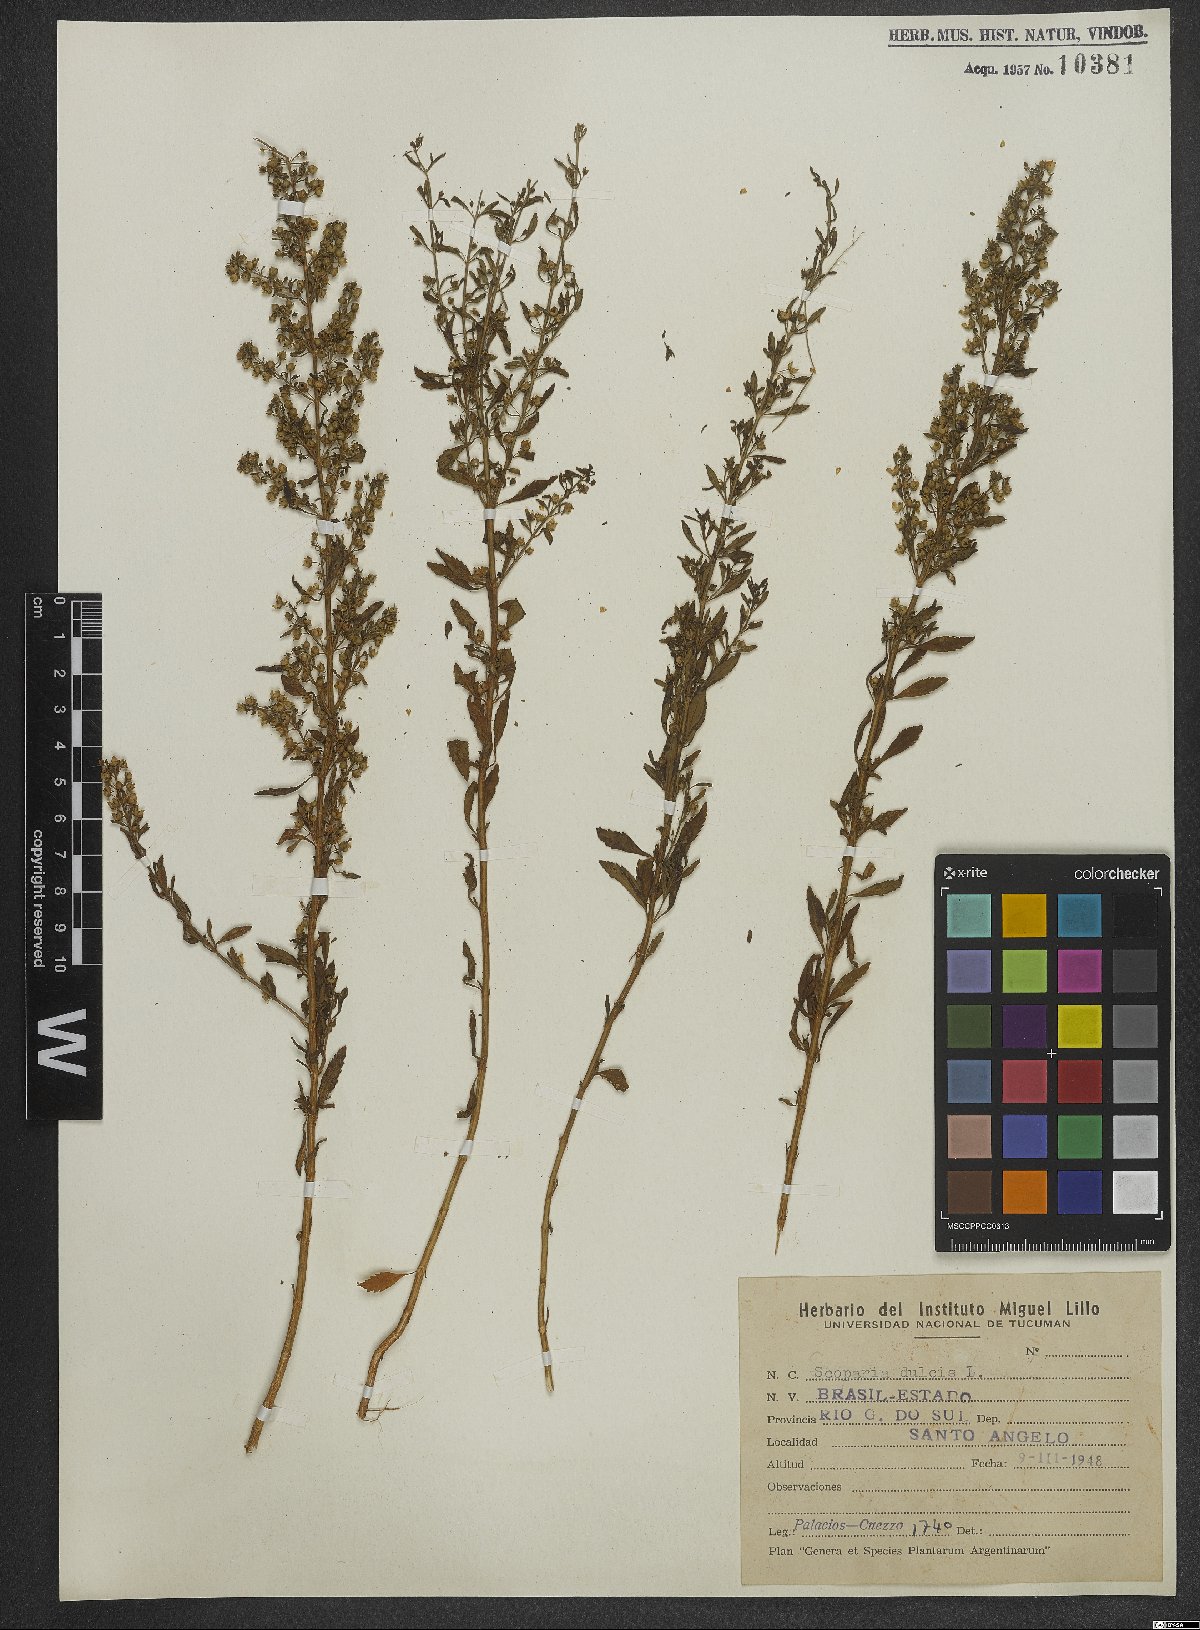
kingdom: Plantae
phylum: Tracheophyta
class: Magnoliopsida
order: Lamiales
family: Plantaginaceae
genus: Scoparia
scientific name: Scoparia dulcis
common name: Scoparia-weed
